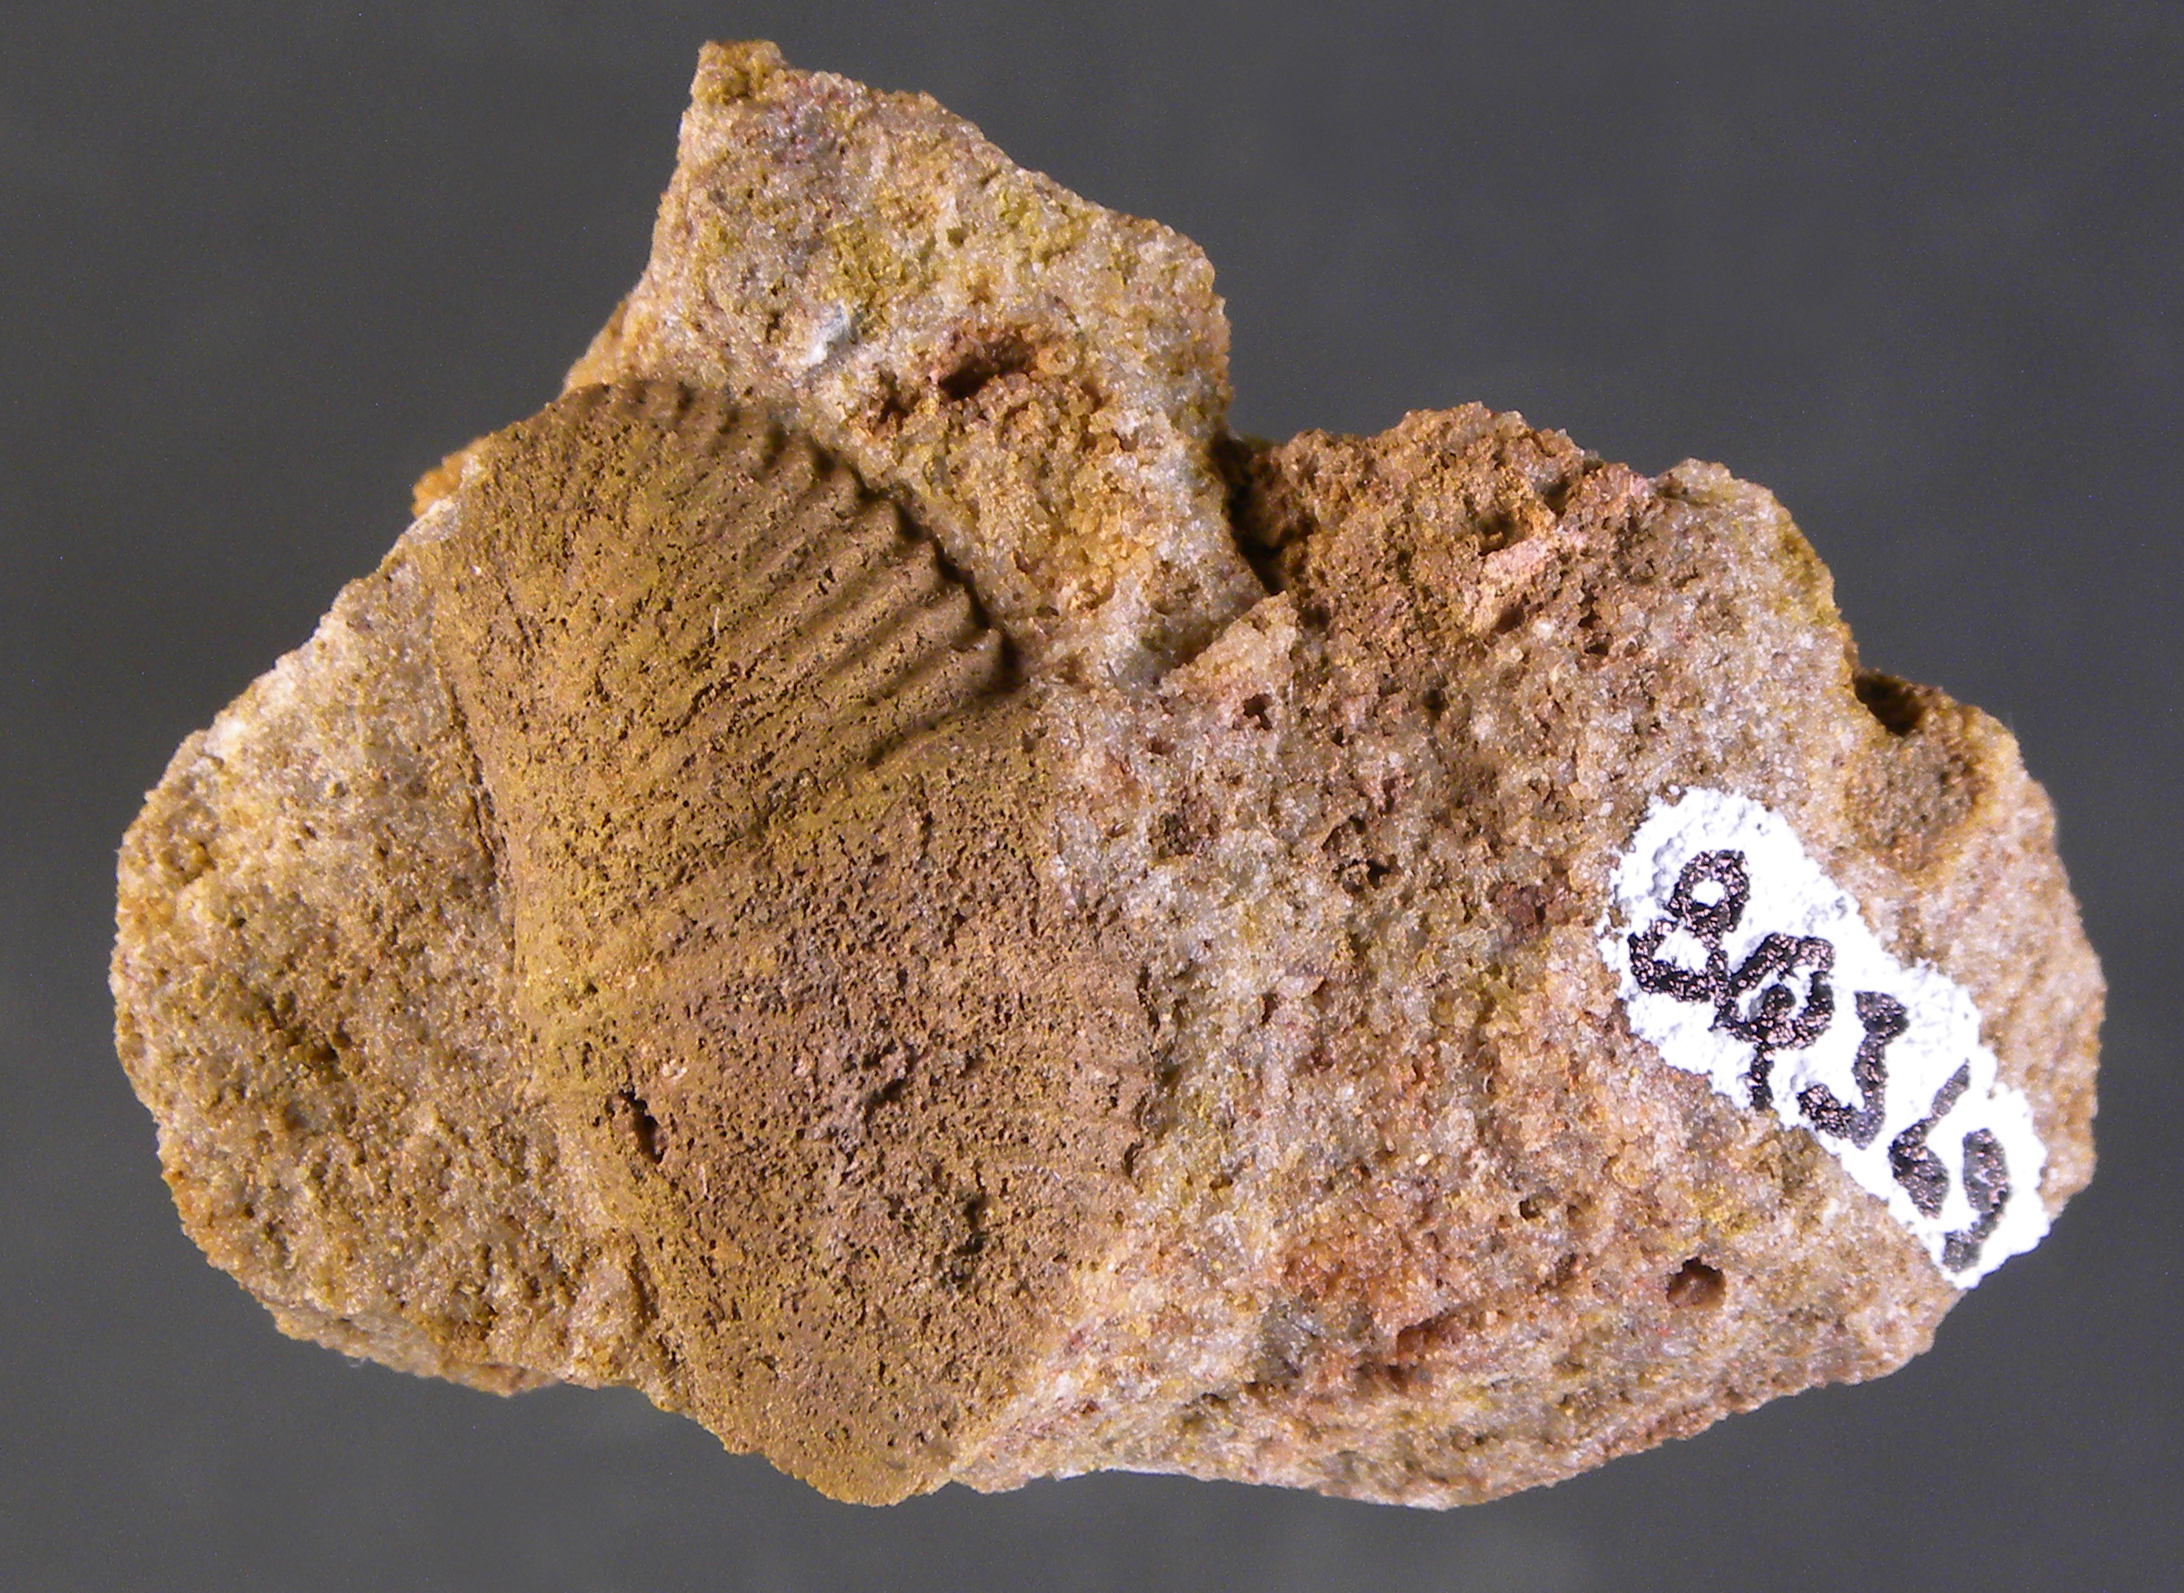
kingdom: Animalia
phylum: Brachiopoda
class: Rhynchonellata
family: Spinocyrtiidae
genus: Subcuspidella
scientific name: Subcuspidella
